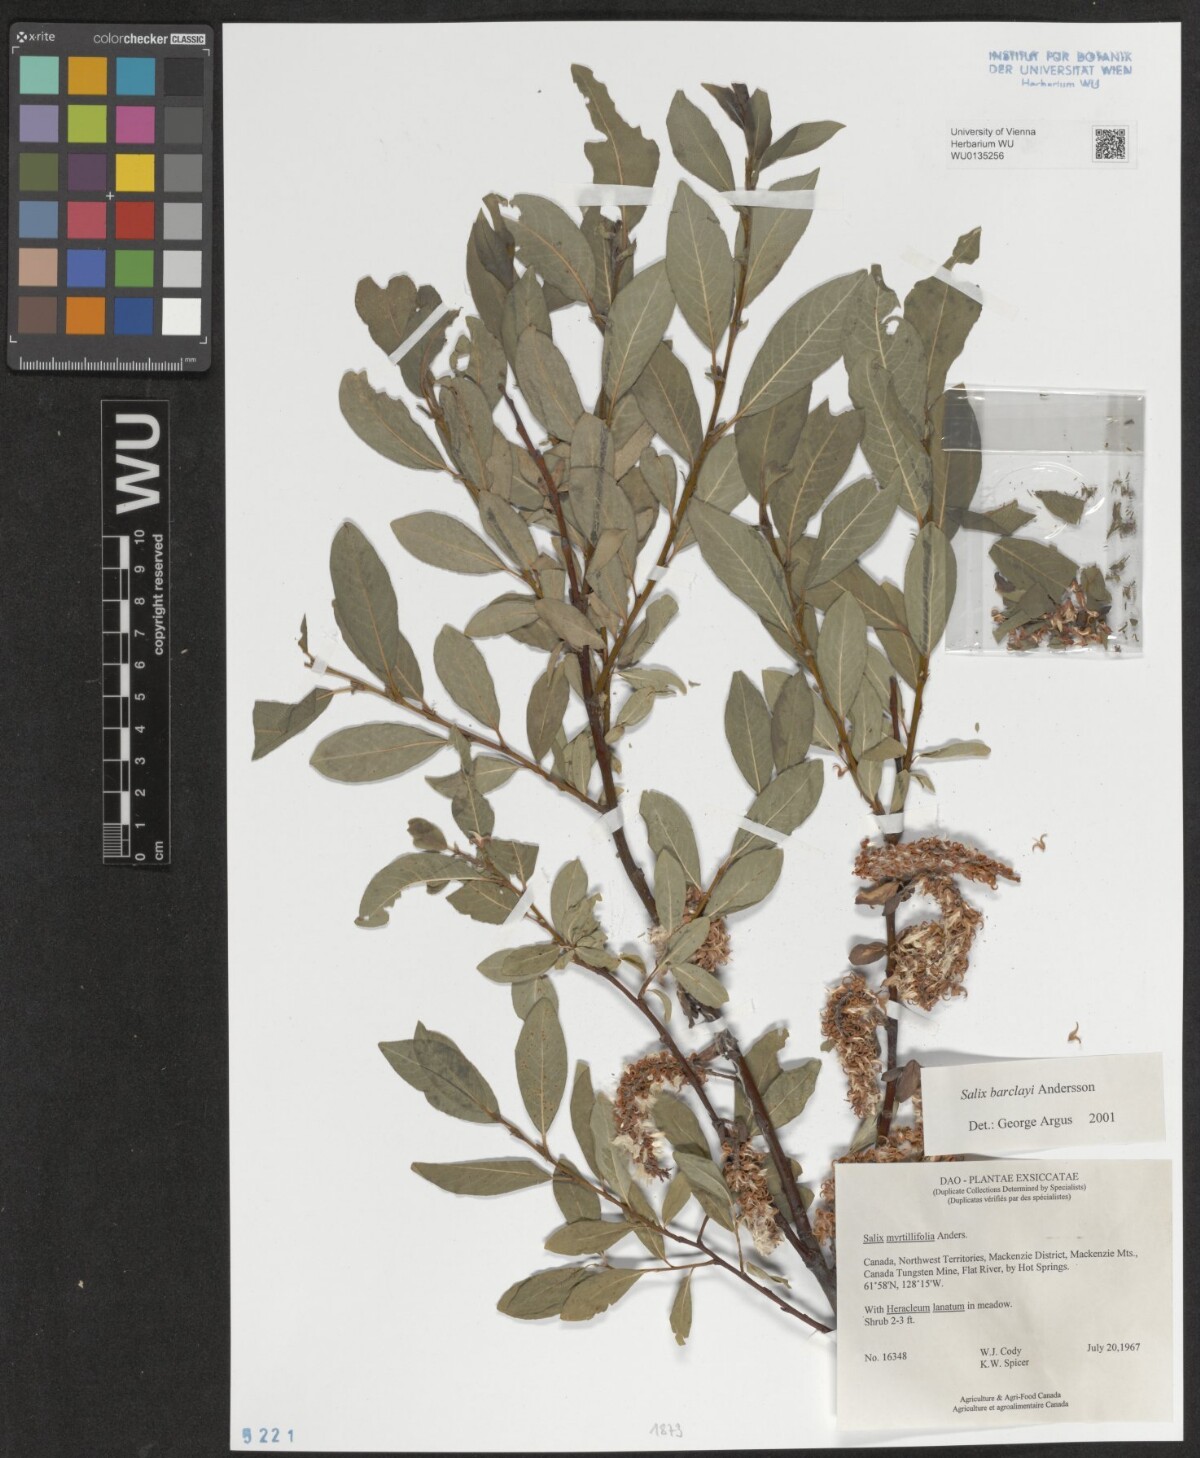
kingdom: Plantae
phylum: Tracheophyta
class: Magnoliopsida
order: Malpighiales
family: Salicaceae
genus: Salix
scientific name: Salix barclayi
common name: Mountain willow
